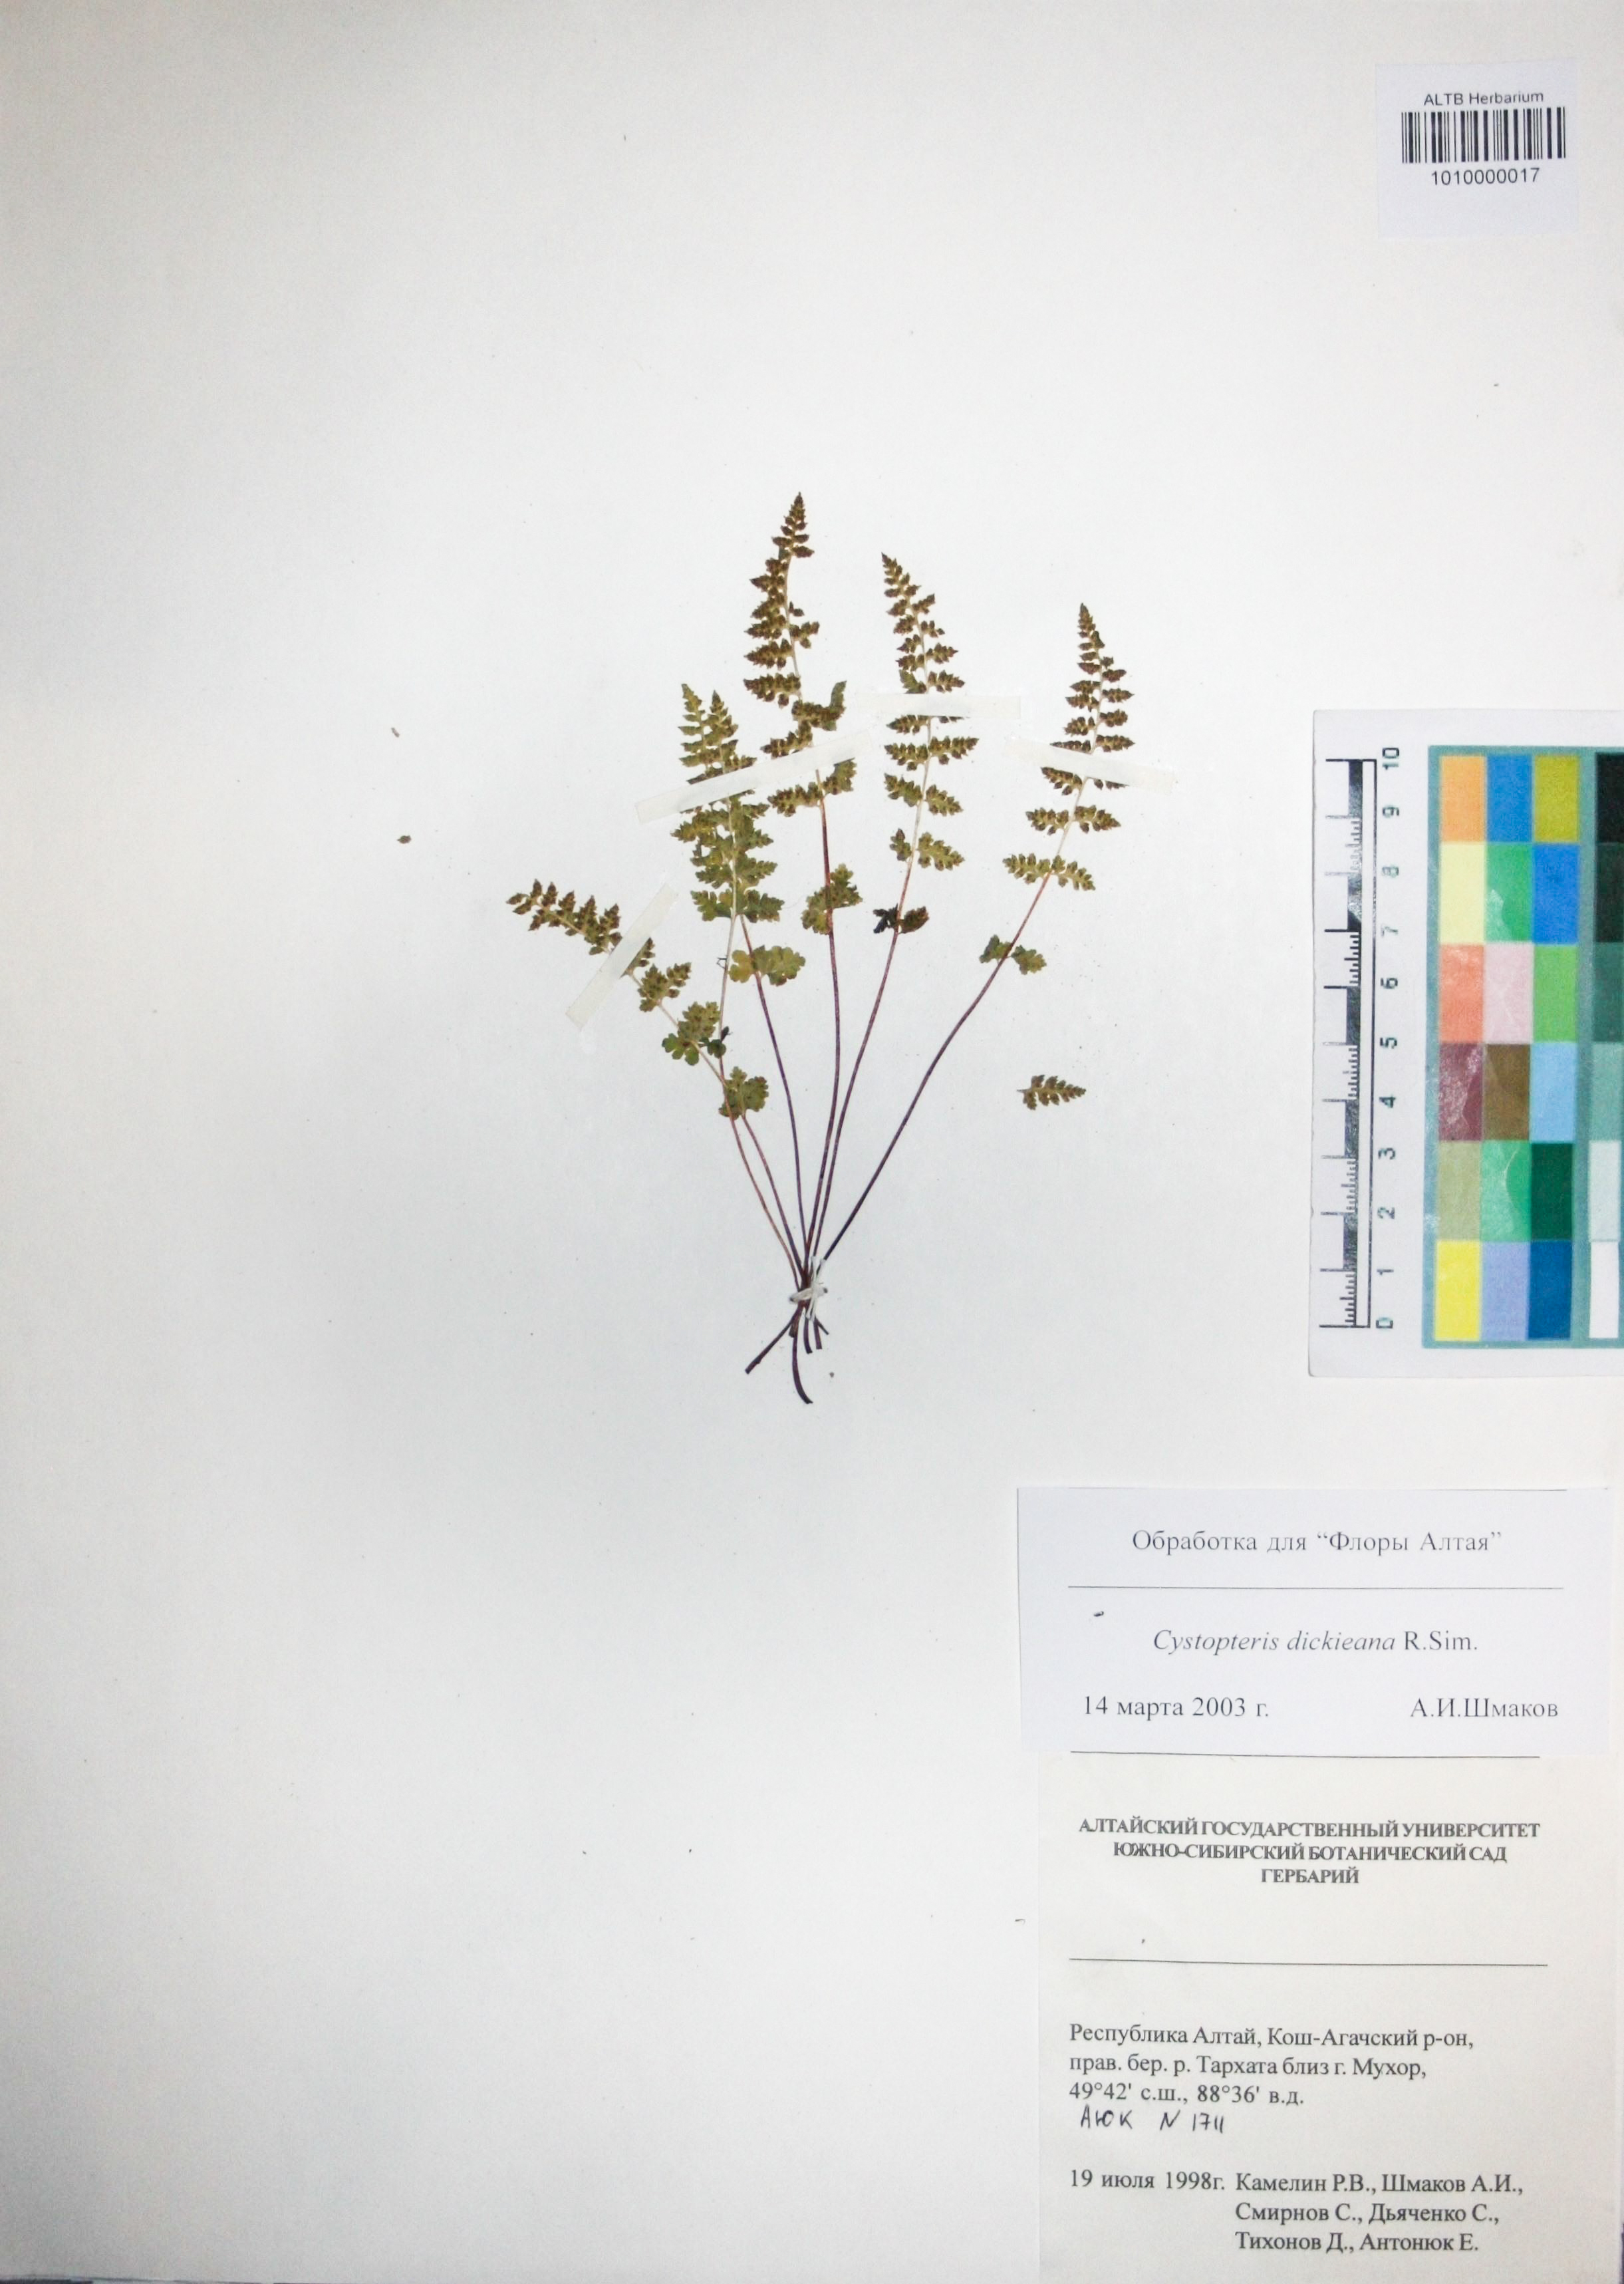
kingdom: Plantae
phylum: Tracheophyta
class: Polypodiopsida
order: Polypodiales
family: Cystopteridaceae
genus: Cystopteris
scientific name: Cystopteris dickieana
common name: Dickie's bladder-fern
